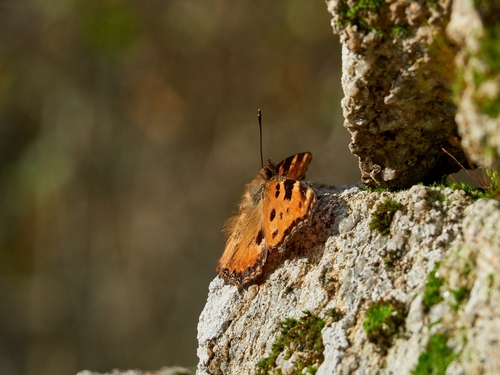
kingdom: Animalia
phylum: Arthropoda
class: Insecta
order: Lepidoptera
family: Nymphalidae
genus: Nymphalis
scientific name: Nymphalis polychloros
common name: Large tortoiseshell
